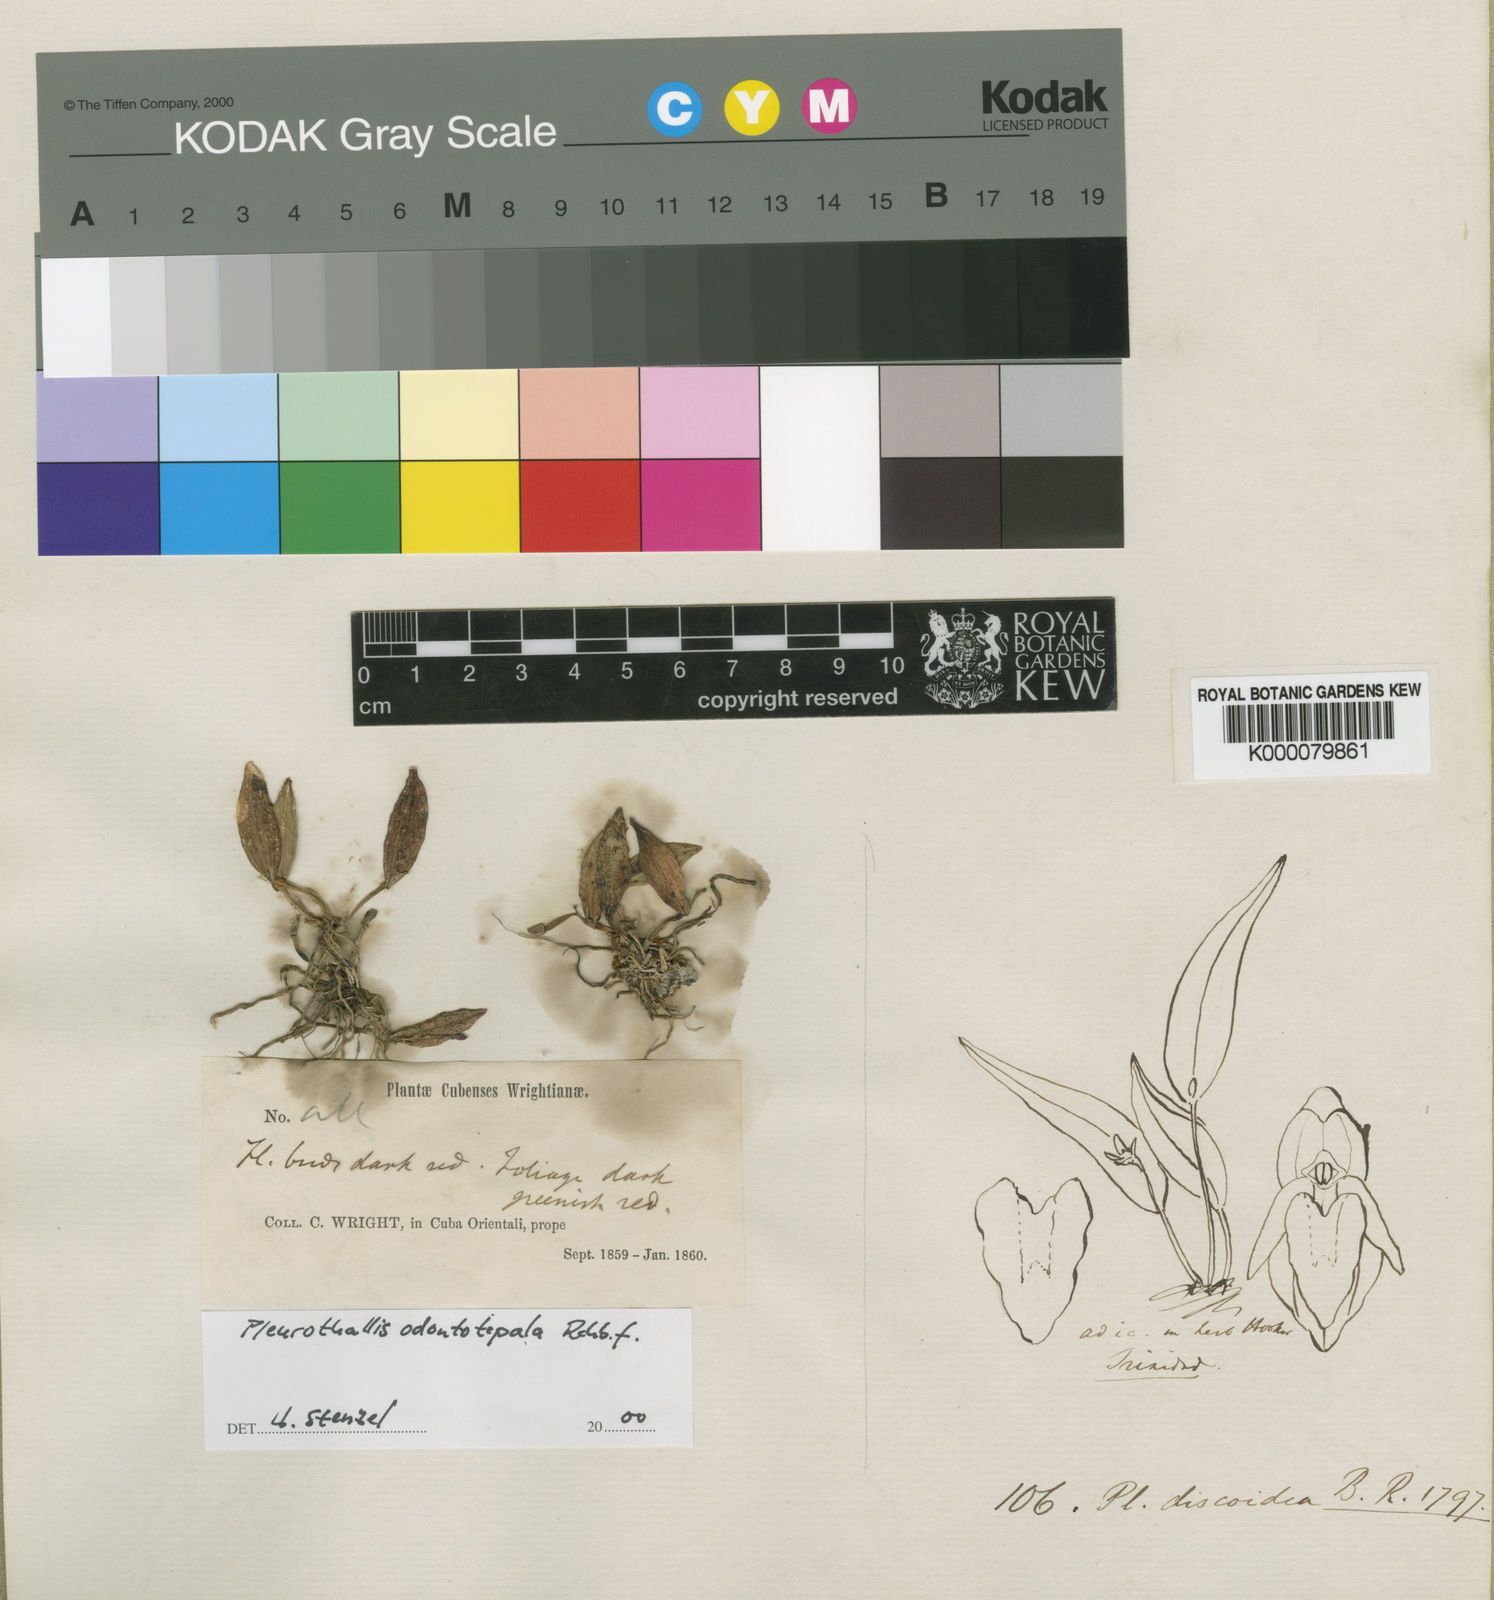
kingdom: Plantae
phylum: Tracheophyta
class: Liliopsida
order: Asparagales
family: Orchidaceae
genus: Acianthera
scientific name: Acianthera odontotepala
